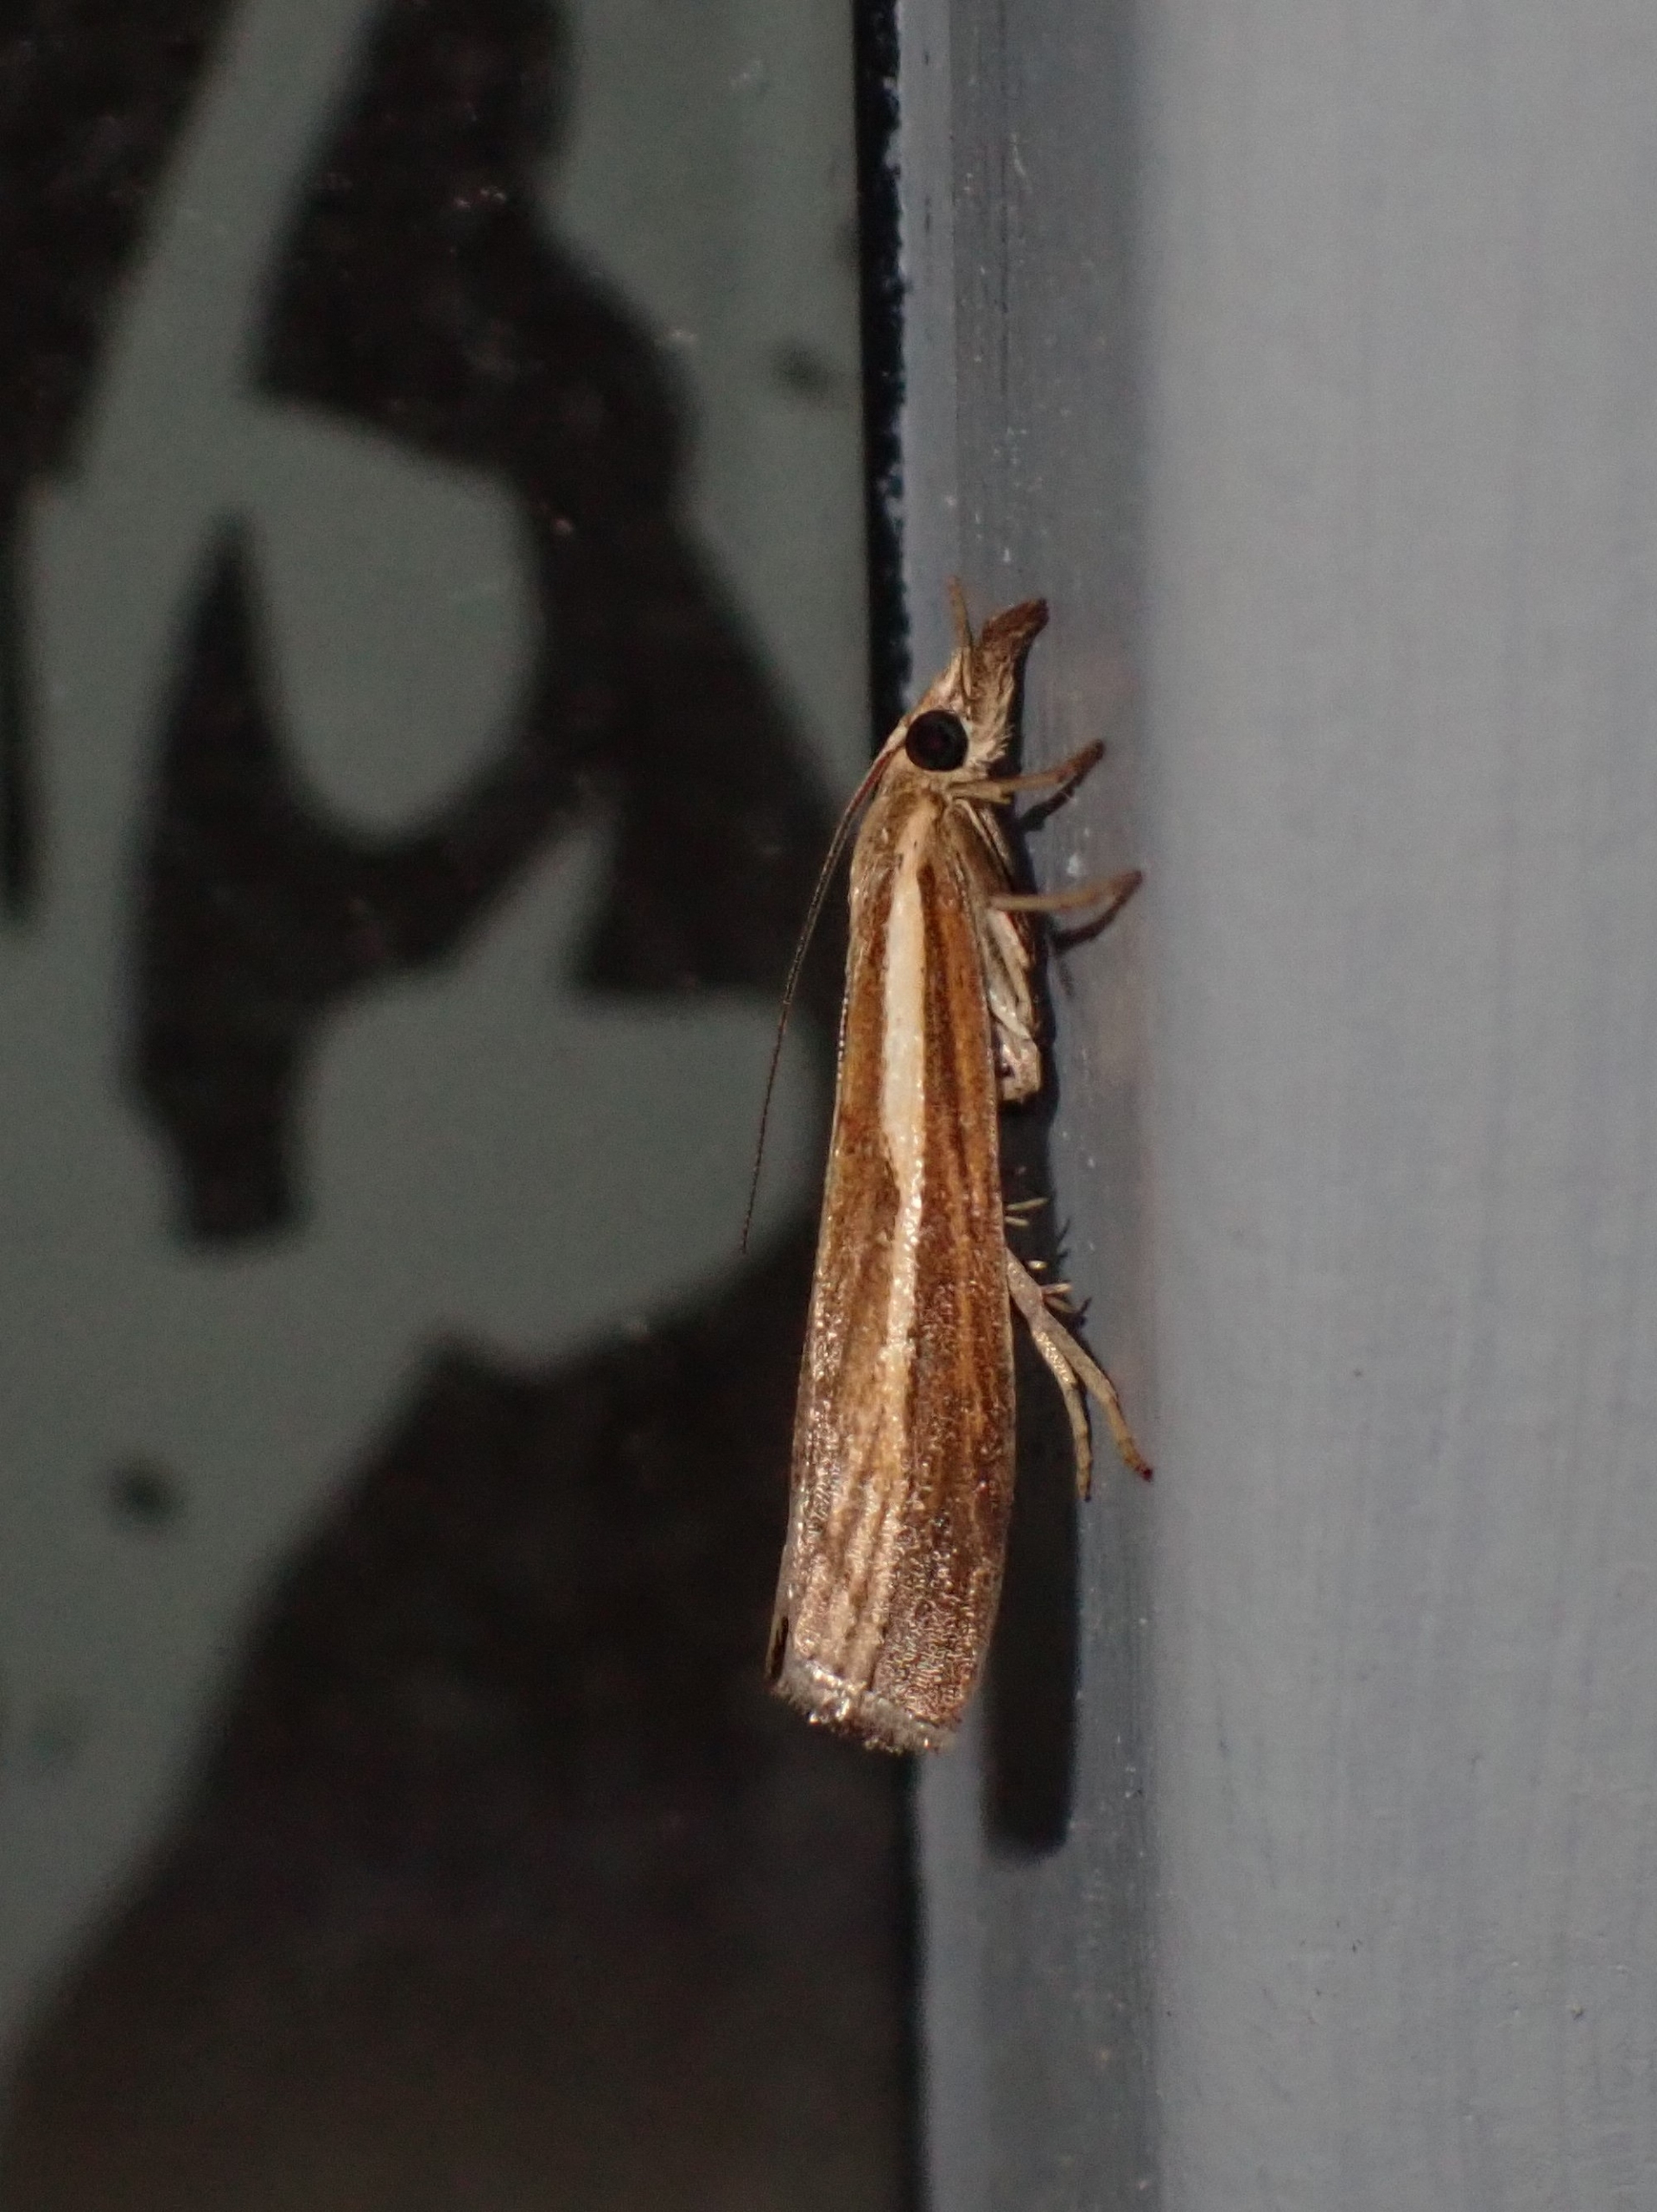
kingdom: Animalia
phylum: Arthropoda
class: Insecta
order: Lepidoptera
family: Crambidae
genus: Agriphila
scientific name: Agriphila tristellus
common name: Okkergult græsmøl
